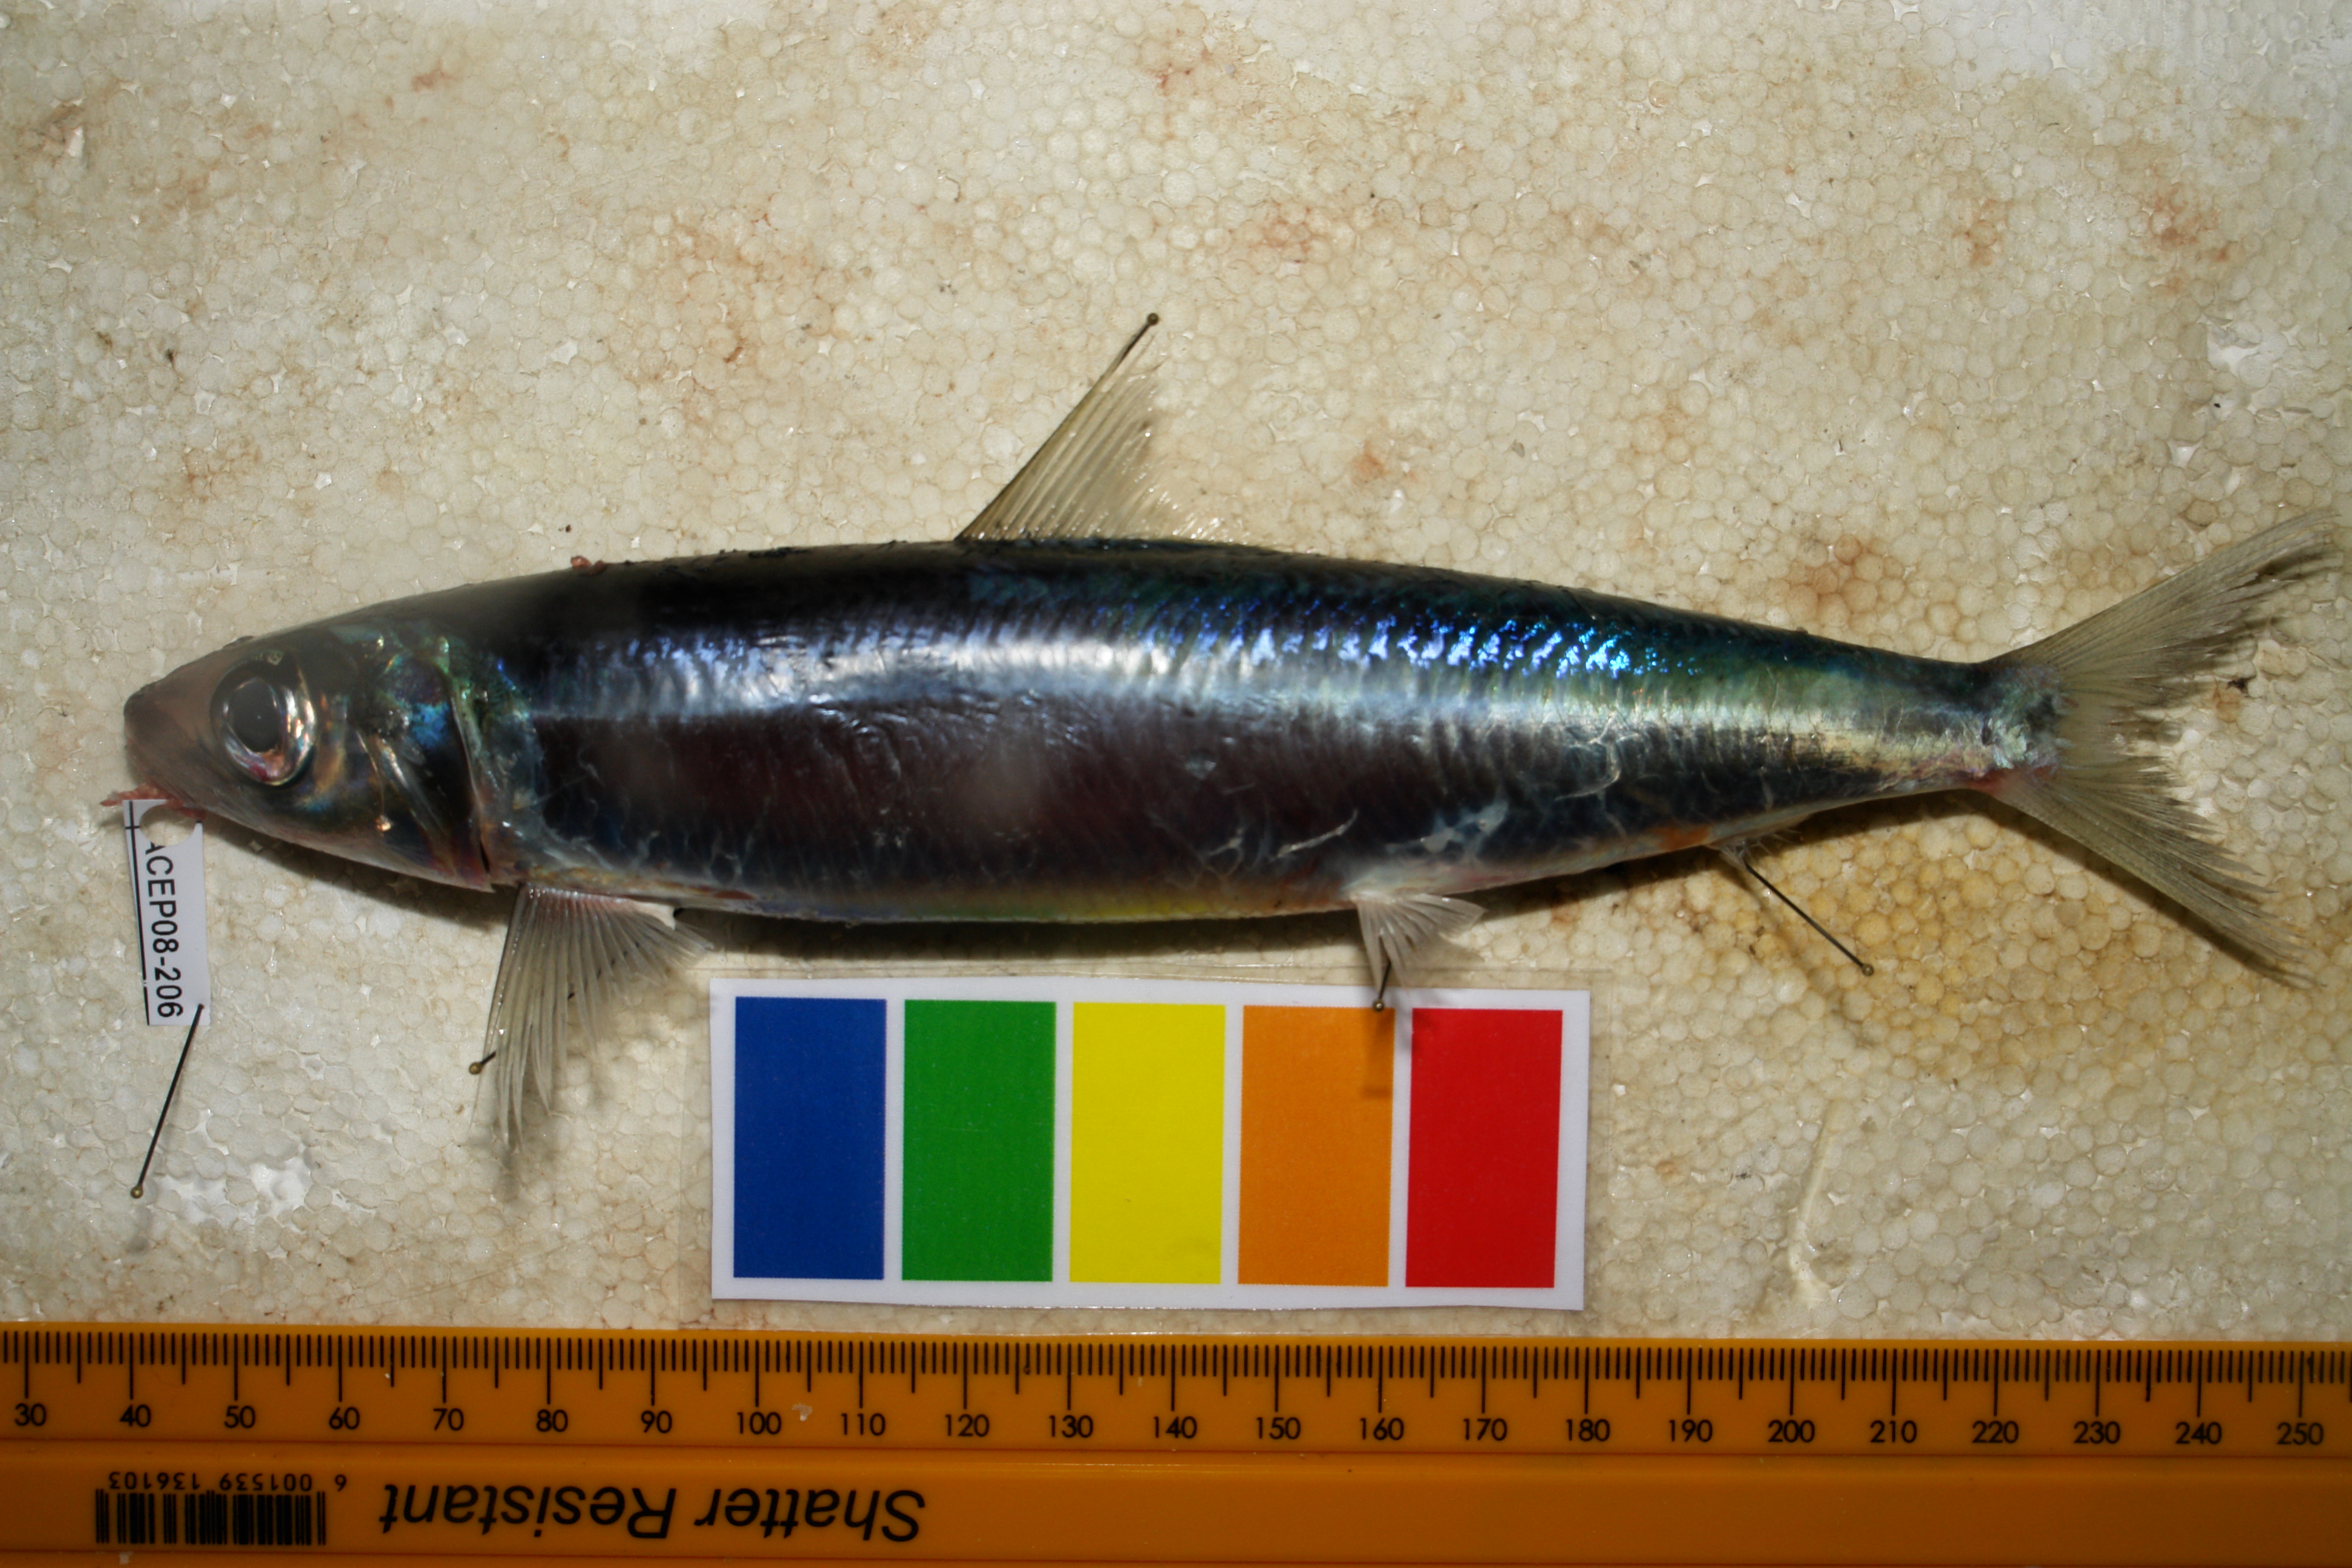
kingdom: Animalia
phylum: Chordata
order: Clupeiformes
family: Dussumieriidae
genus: Etrumeus
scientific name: Etrumeus sadina
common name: Red-eye round herring
